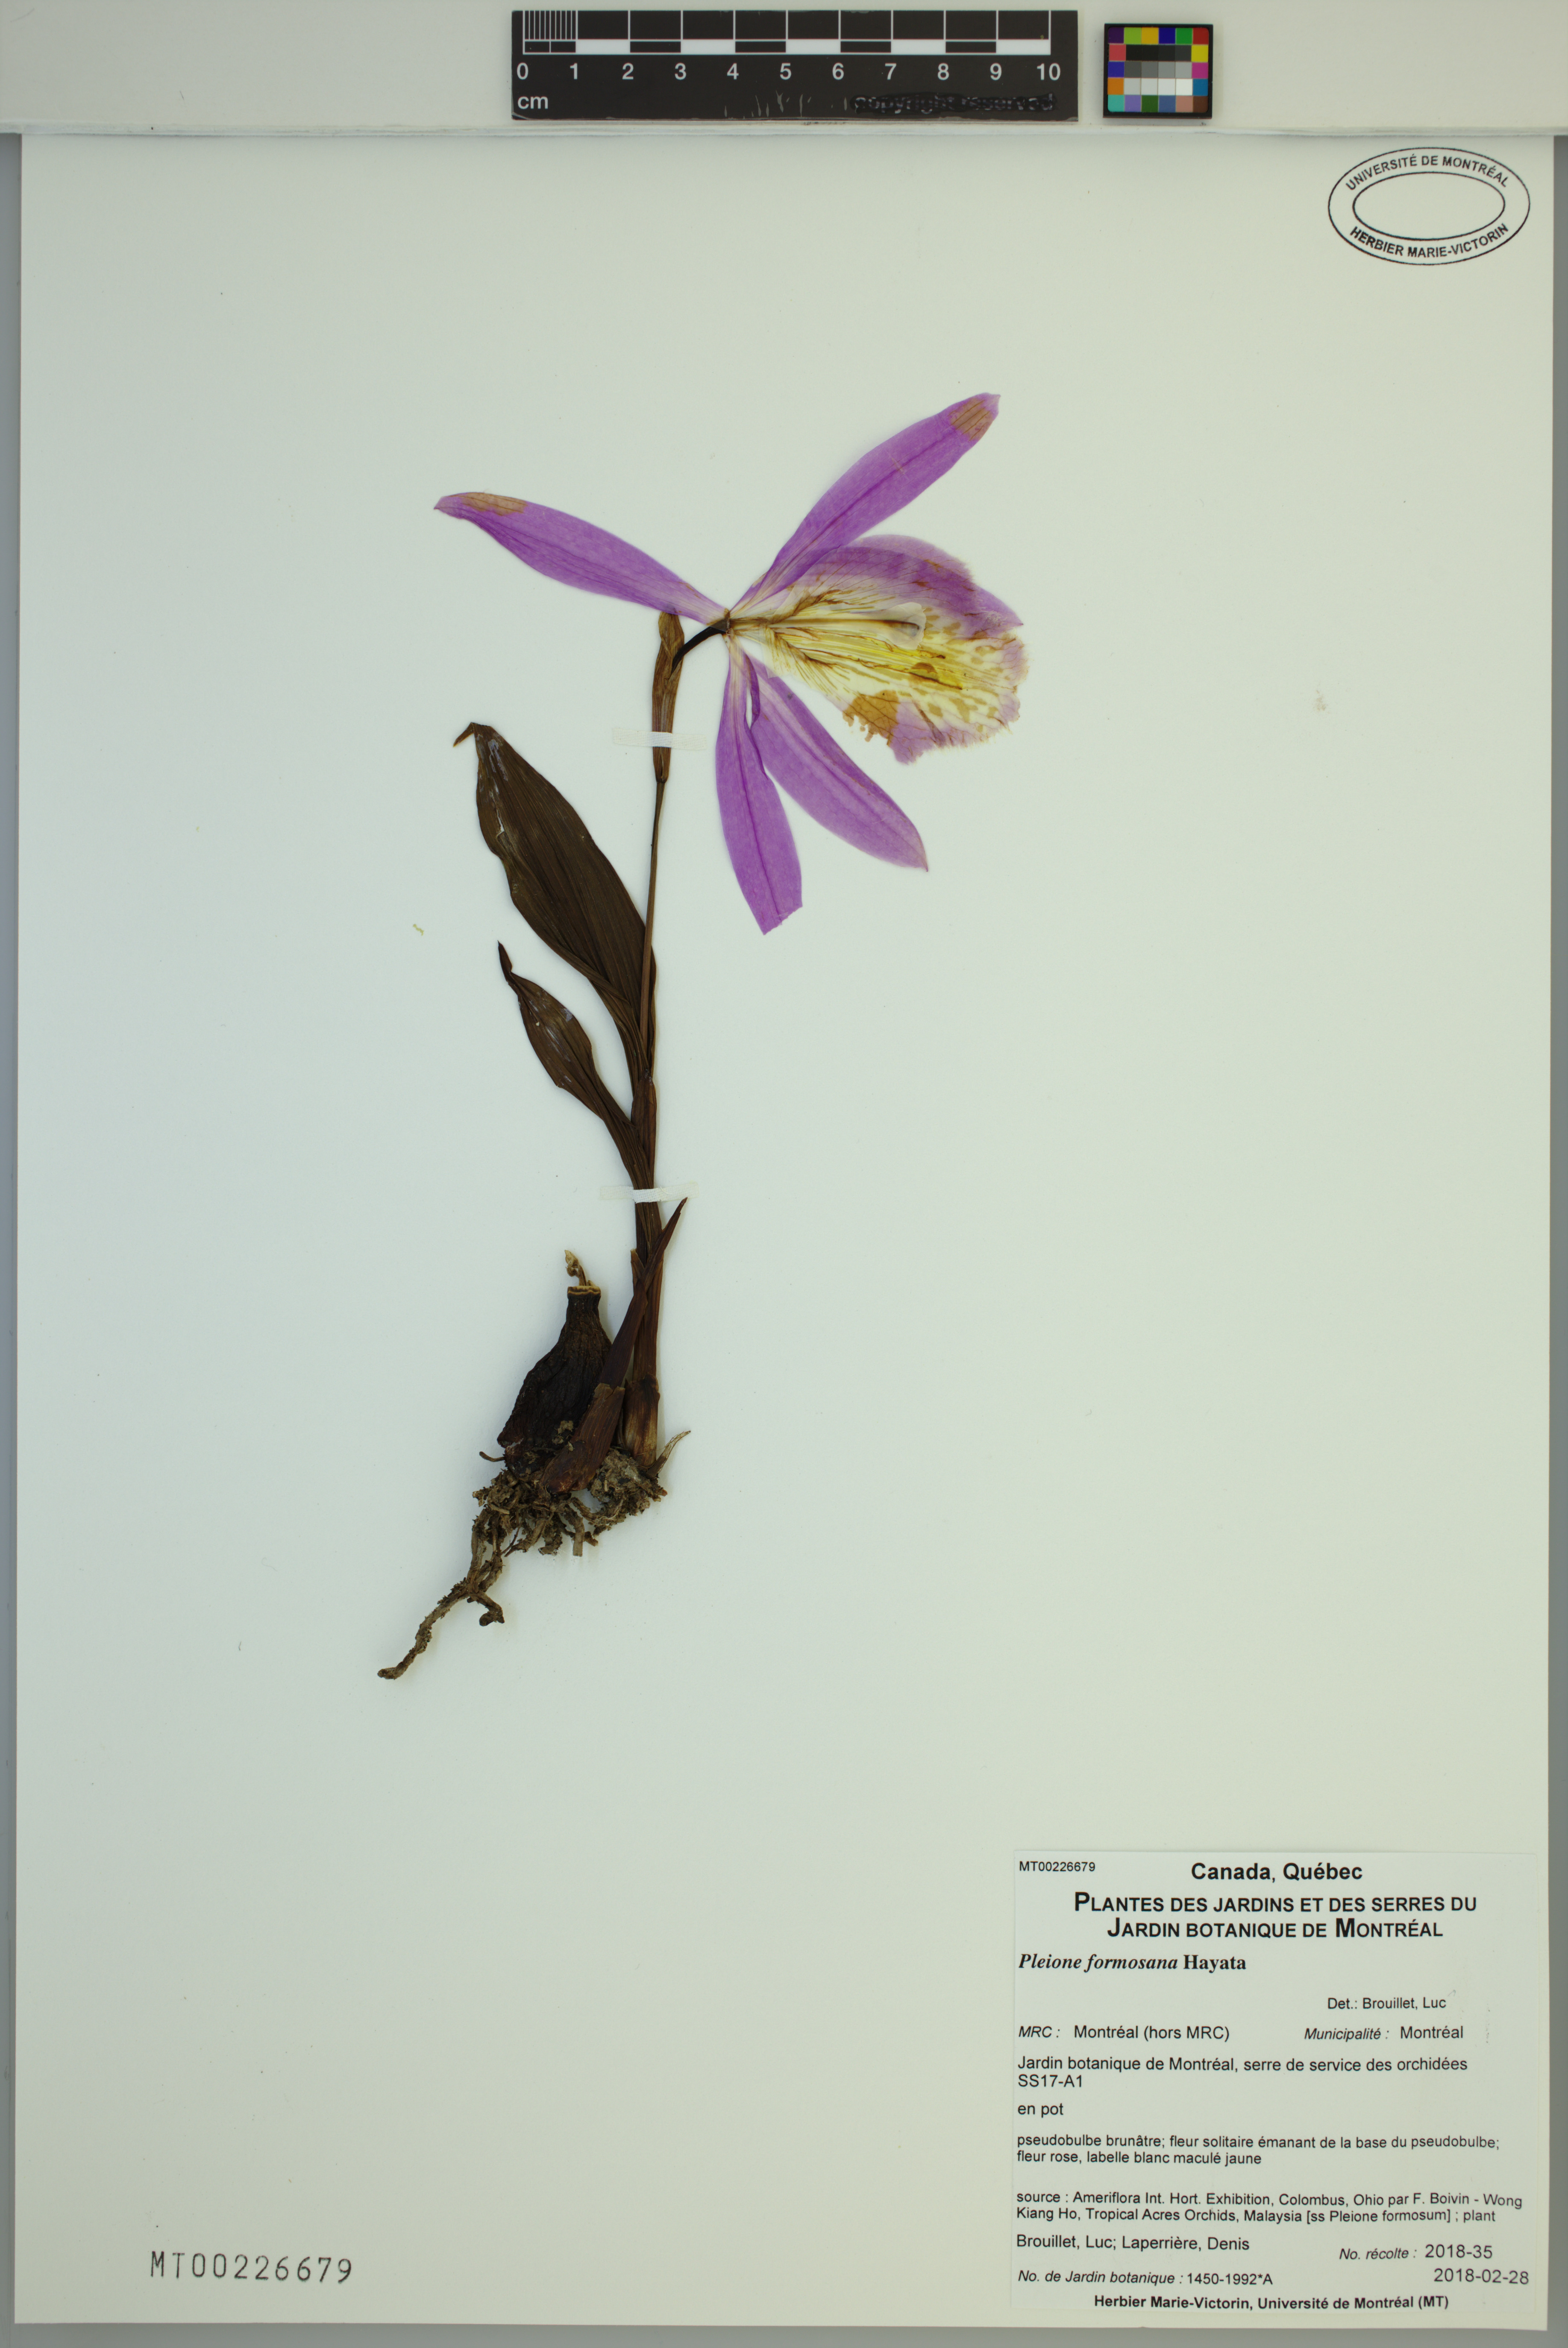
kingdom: Plantae
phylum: Tracheophyta
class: Liliopsida
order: Asparagales
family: Orchidaceae
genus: Pleione
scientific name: Pleione formosana
